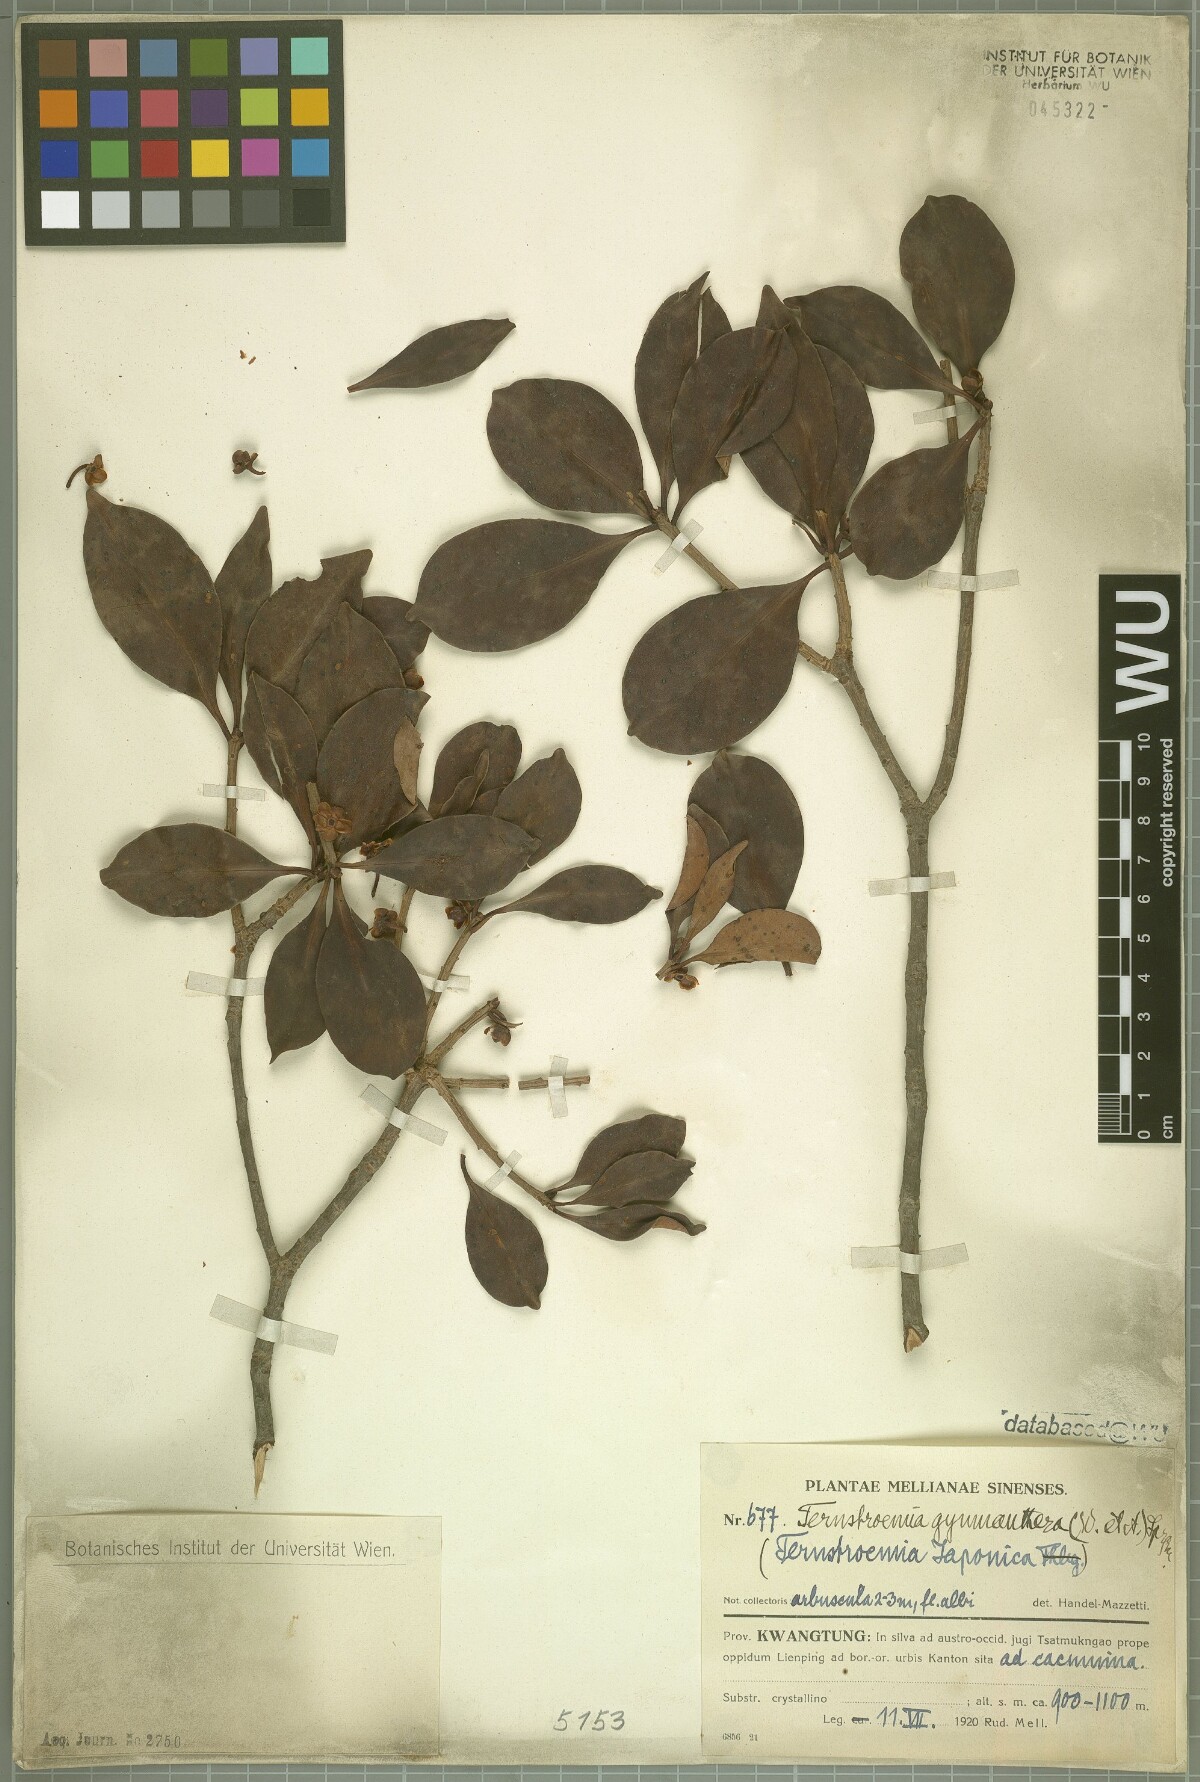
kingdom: Plantae
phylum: Tracheophyta
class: Magnoliopsida
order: Ericales
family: Pentaphylacaceae
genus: Ternstroemia
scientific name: Ternstroemia gymnanthera
